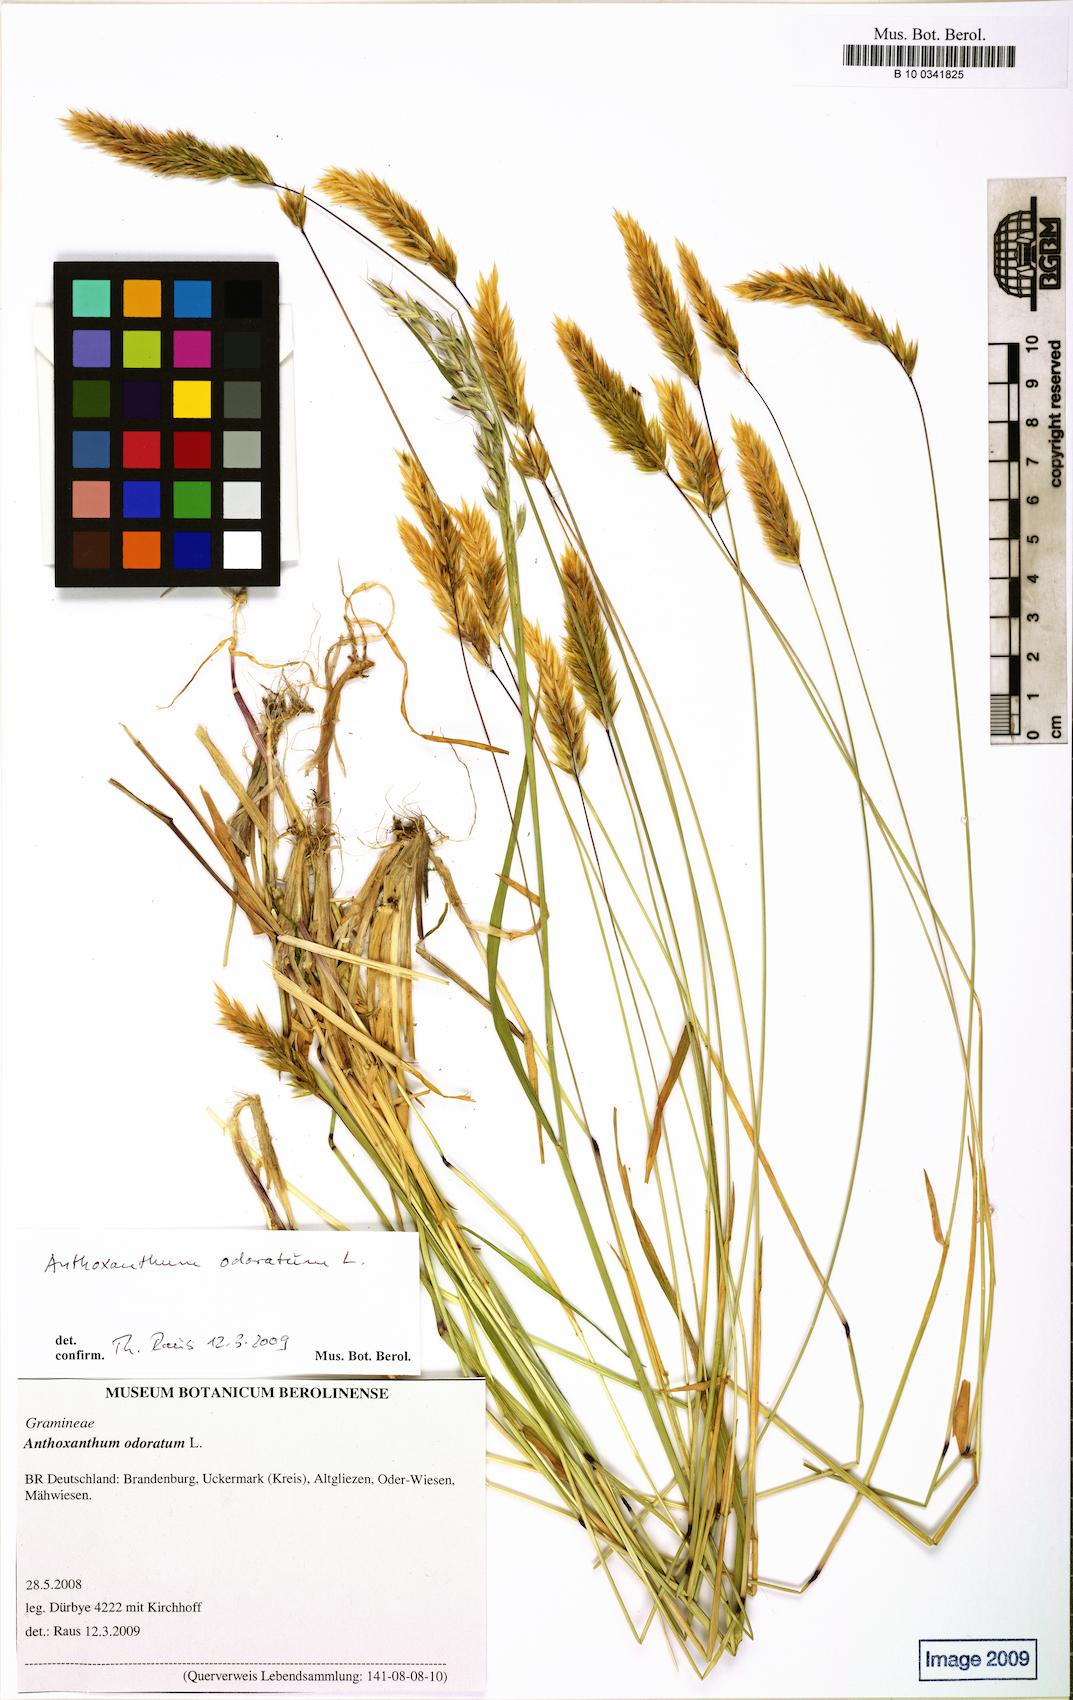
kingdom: Plantae
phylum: Tracheophyta
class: Liliopsida
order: Poales
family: Poaceae
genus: Anthoxanthum
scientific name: Anthoxanthum odoratum
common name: Sweet vernalgrass
